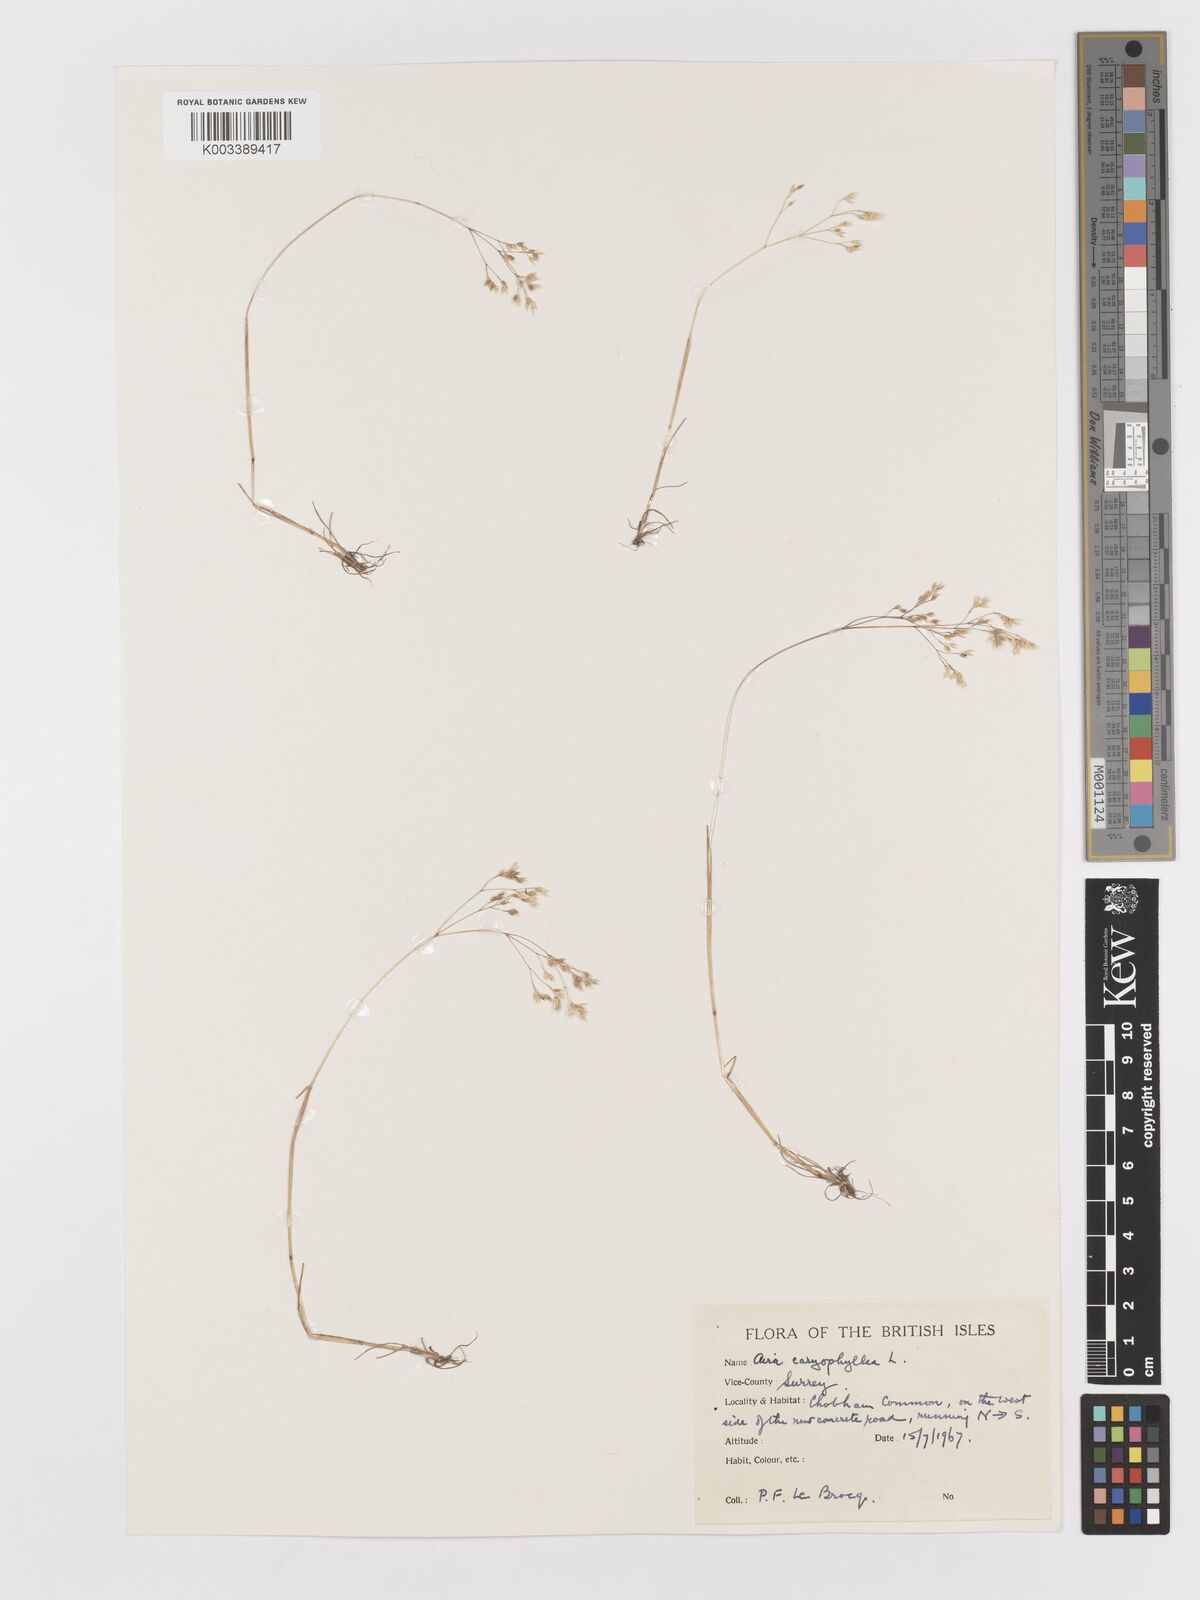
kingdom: Plantae
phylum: Tracheophyta
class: Liliopsida
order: Poales
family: Poaceae
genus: Aira
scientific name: Aira caryophyllea
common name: Silver hairgrass
